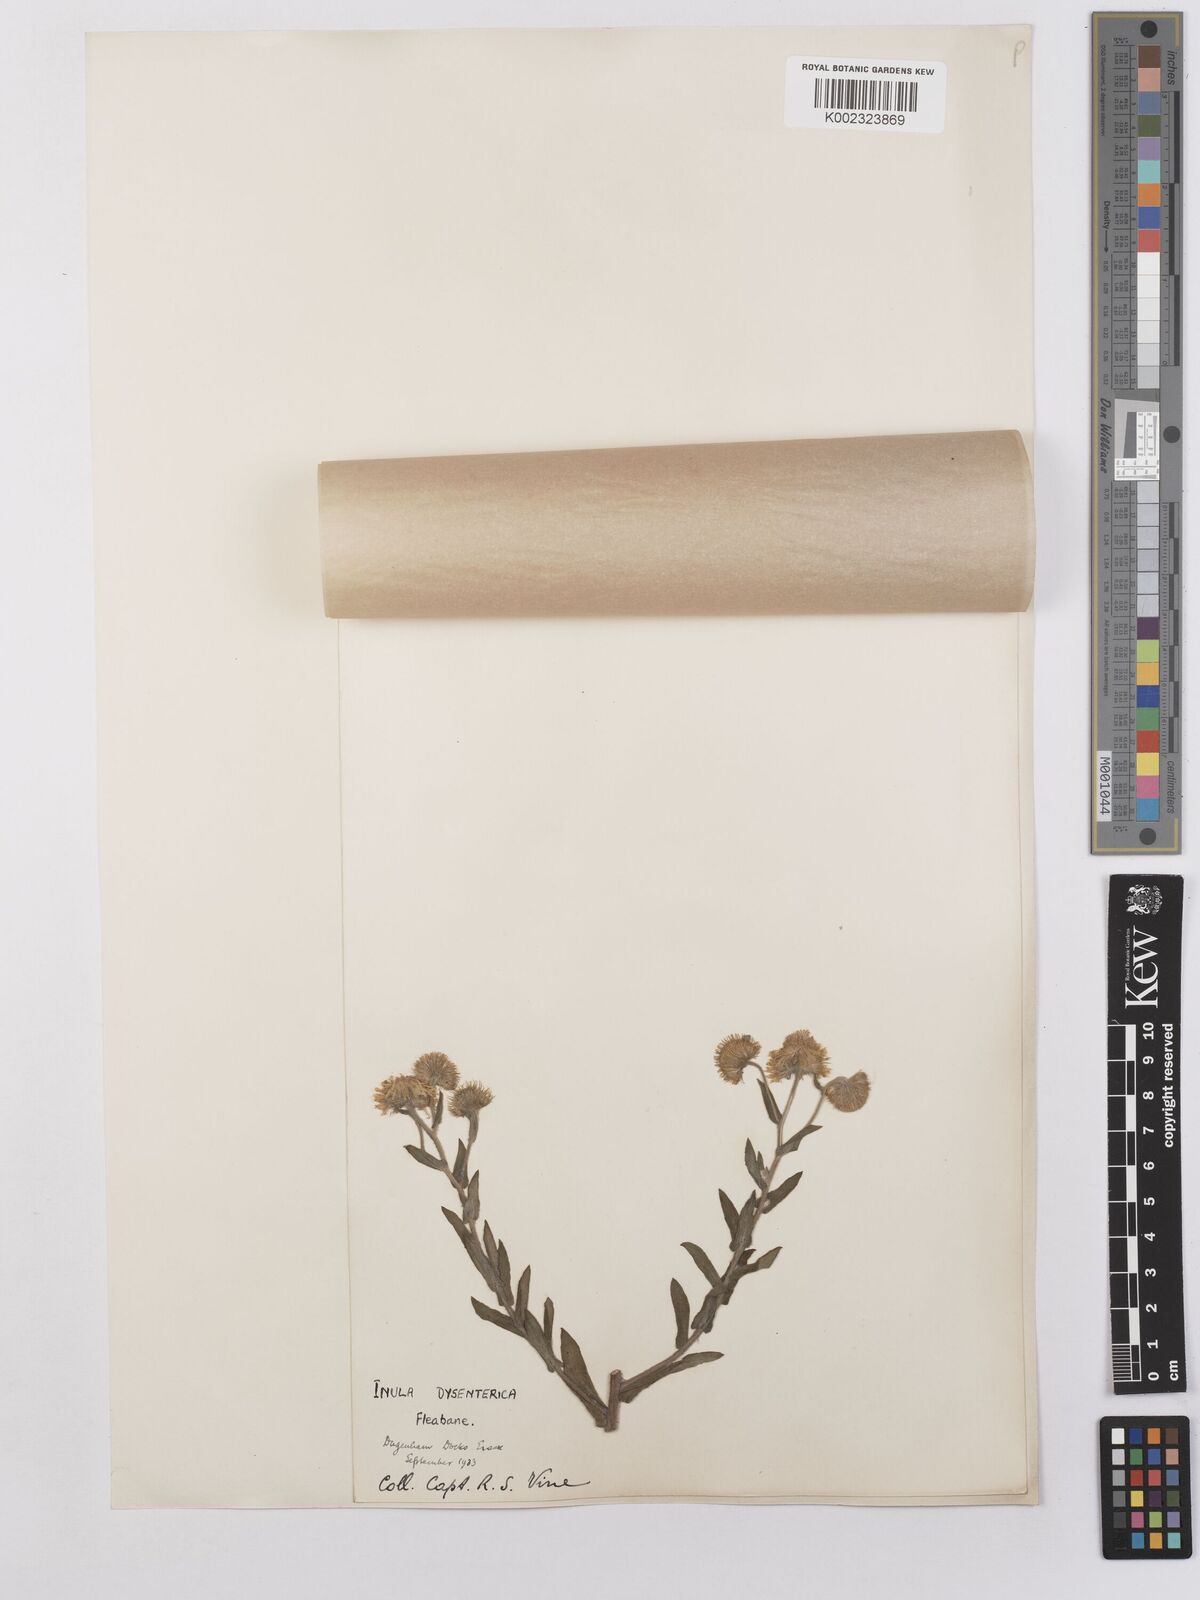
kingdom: Plantae
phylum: Tracheophyta
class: Magnoliopsida
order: Asterales
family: Asteraceae
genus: Pulicaria
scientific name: Pulicaria dysenterica
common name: Common fleabane
